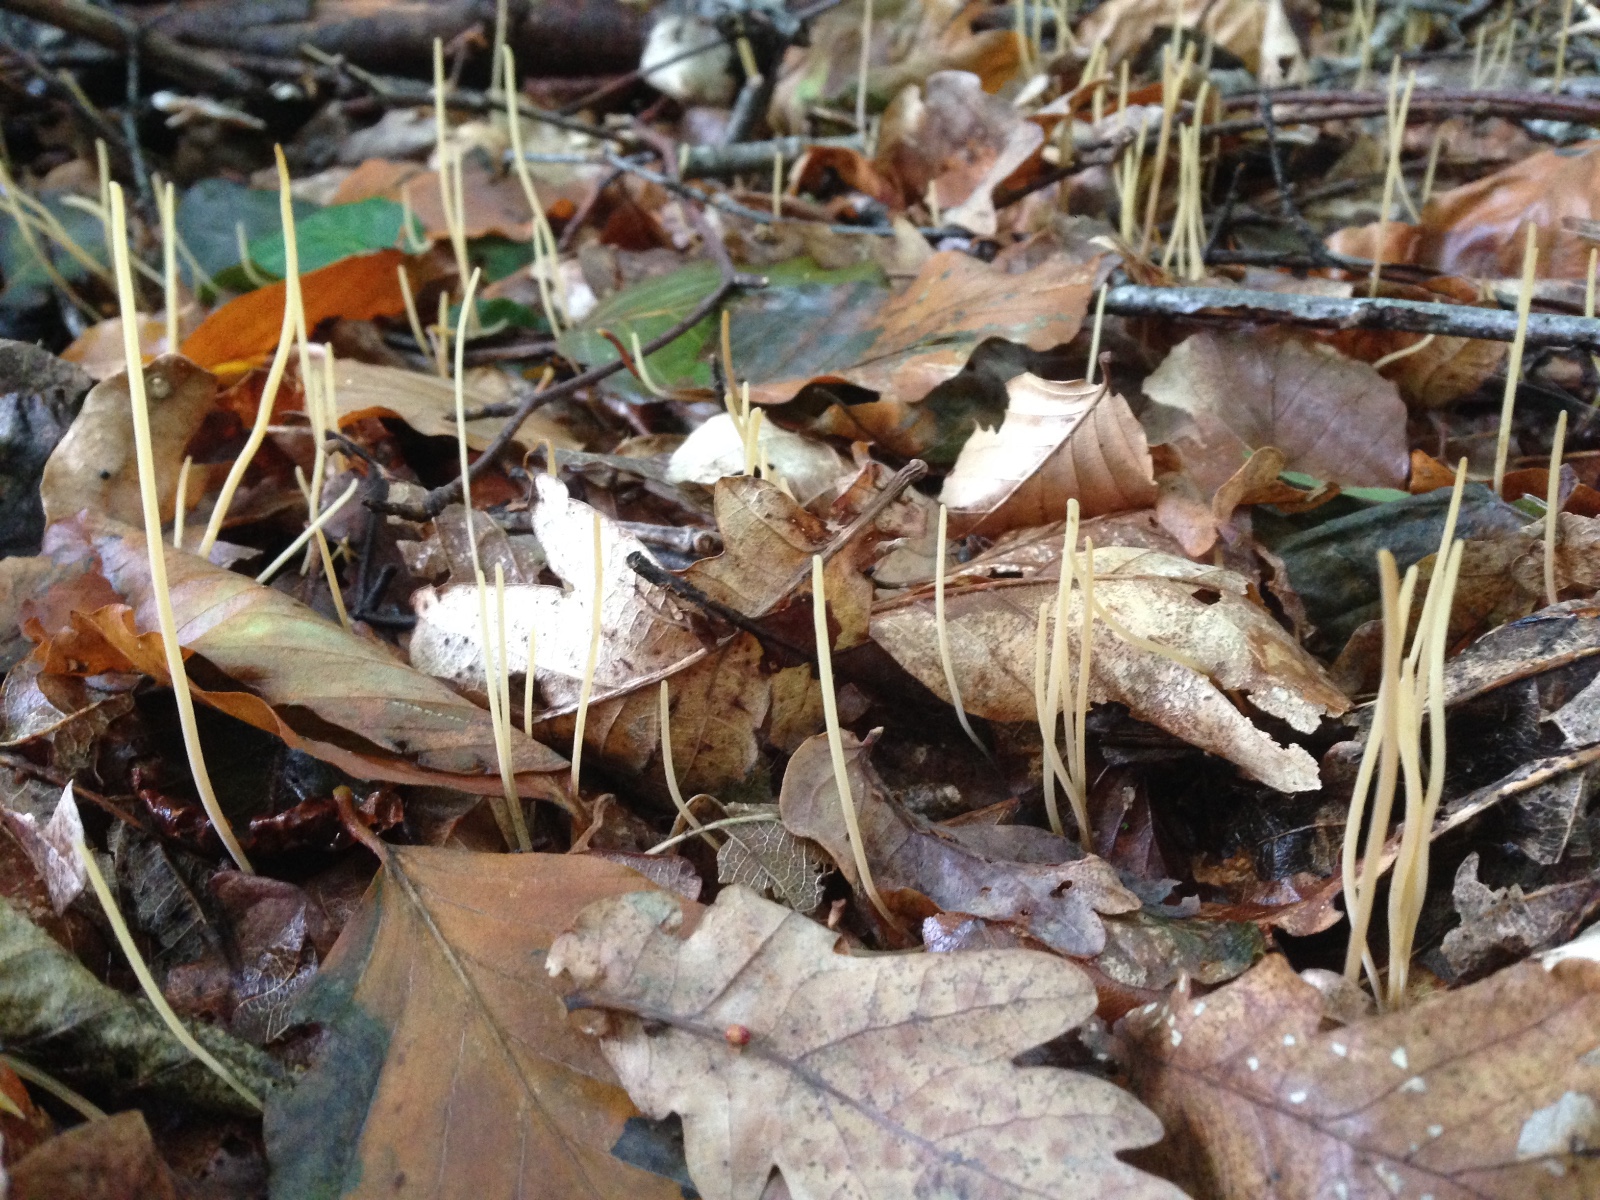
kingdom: Fungi
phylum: Basidiomycota
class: Agaricomycetes
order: Agaricales
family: Typhulaceae
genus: Typhula
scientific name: Typhula juncea
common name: trådagtig rørkølle
